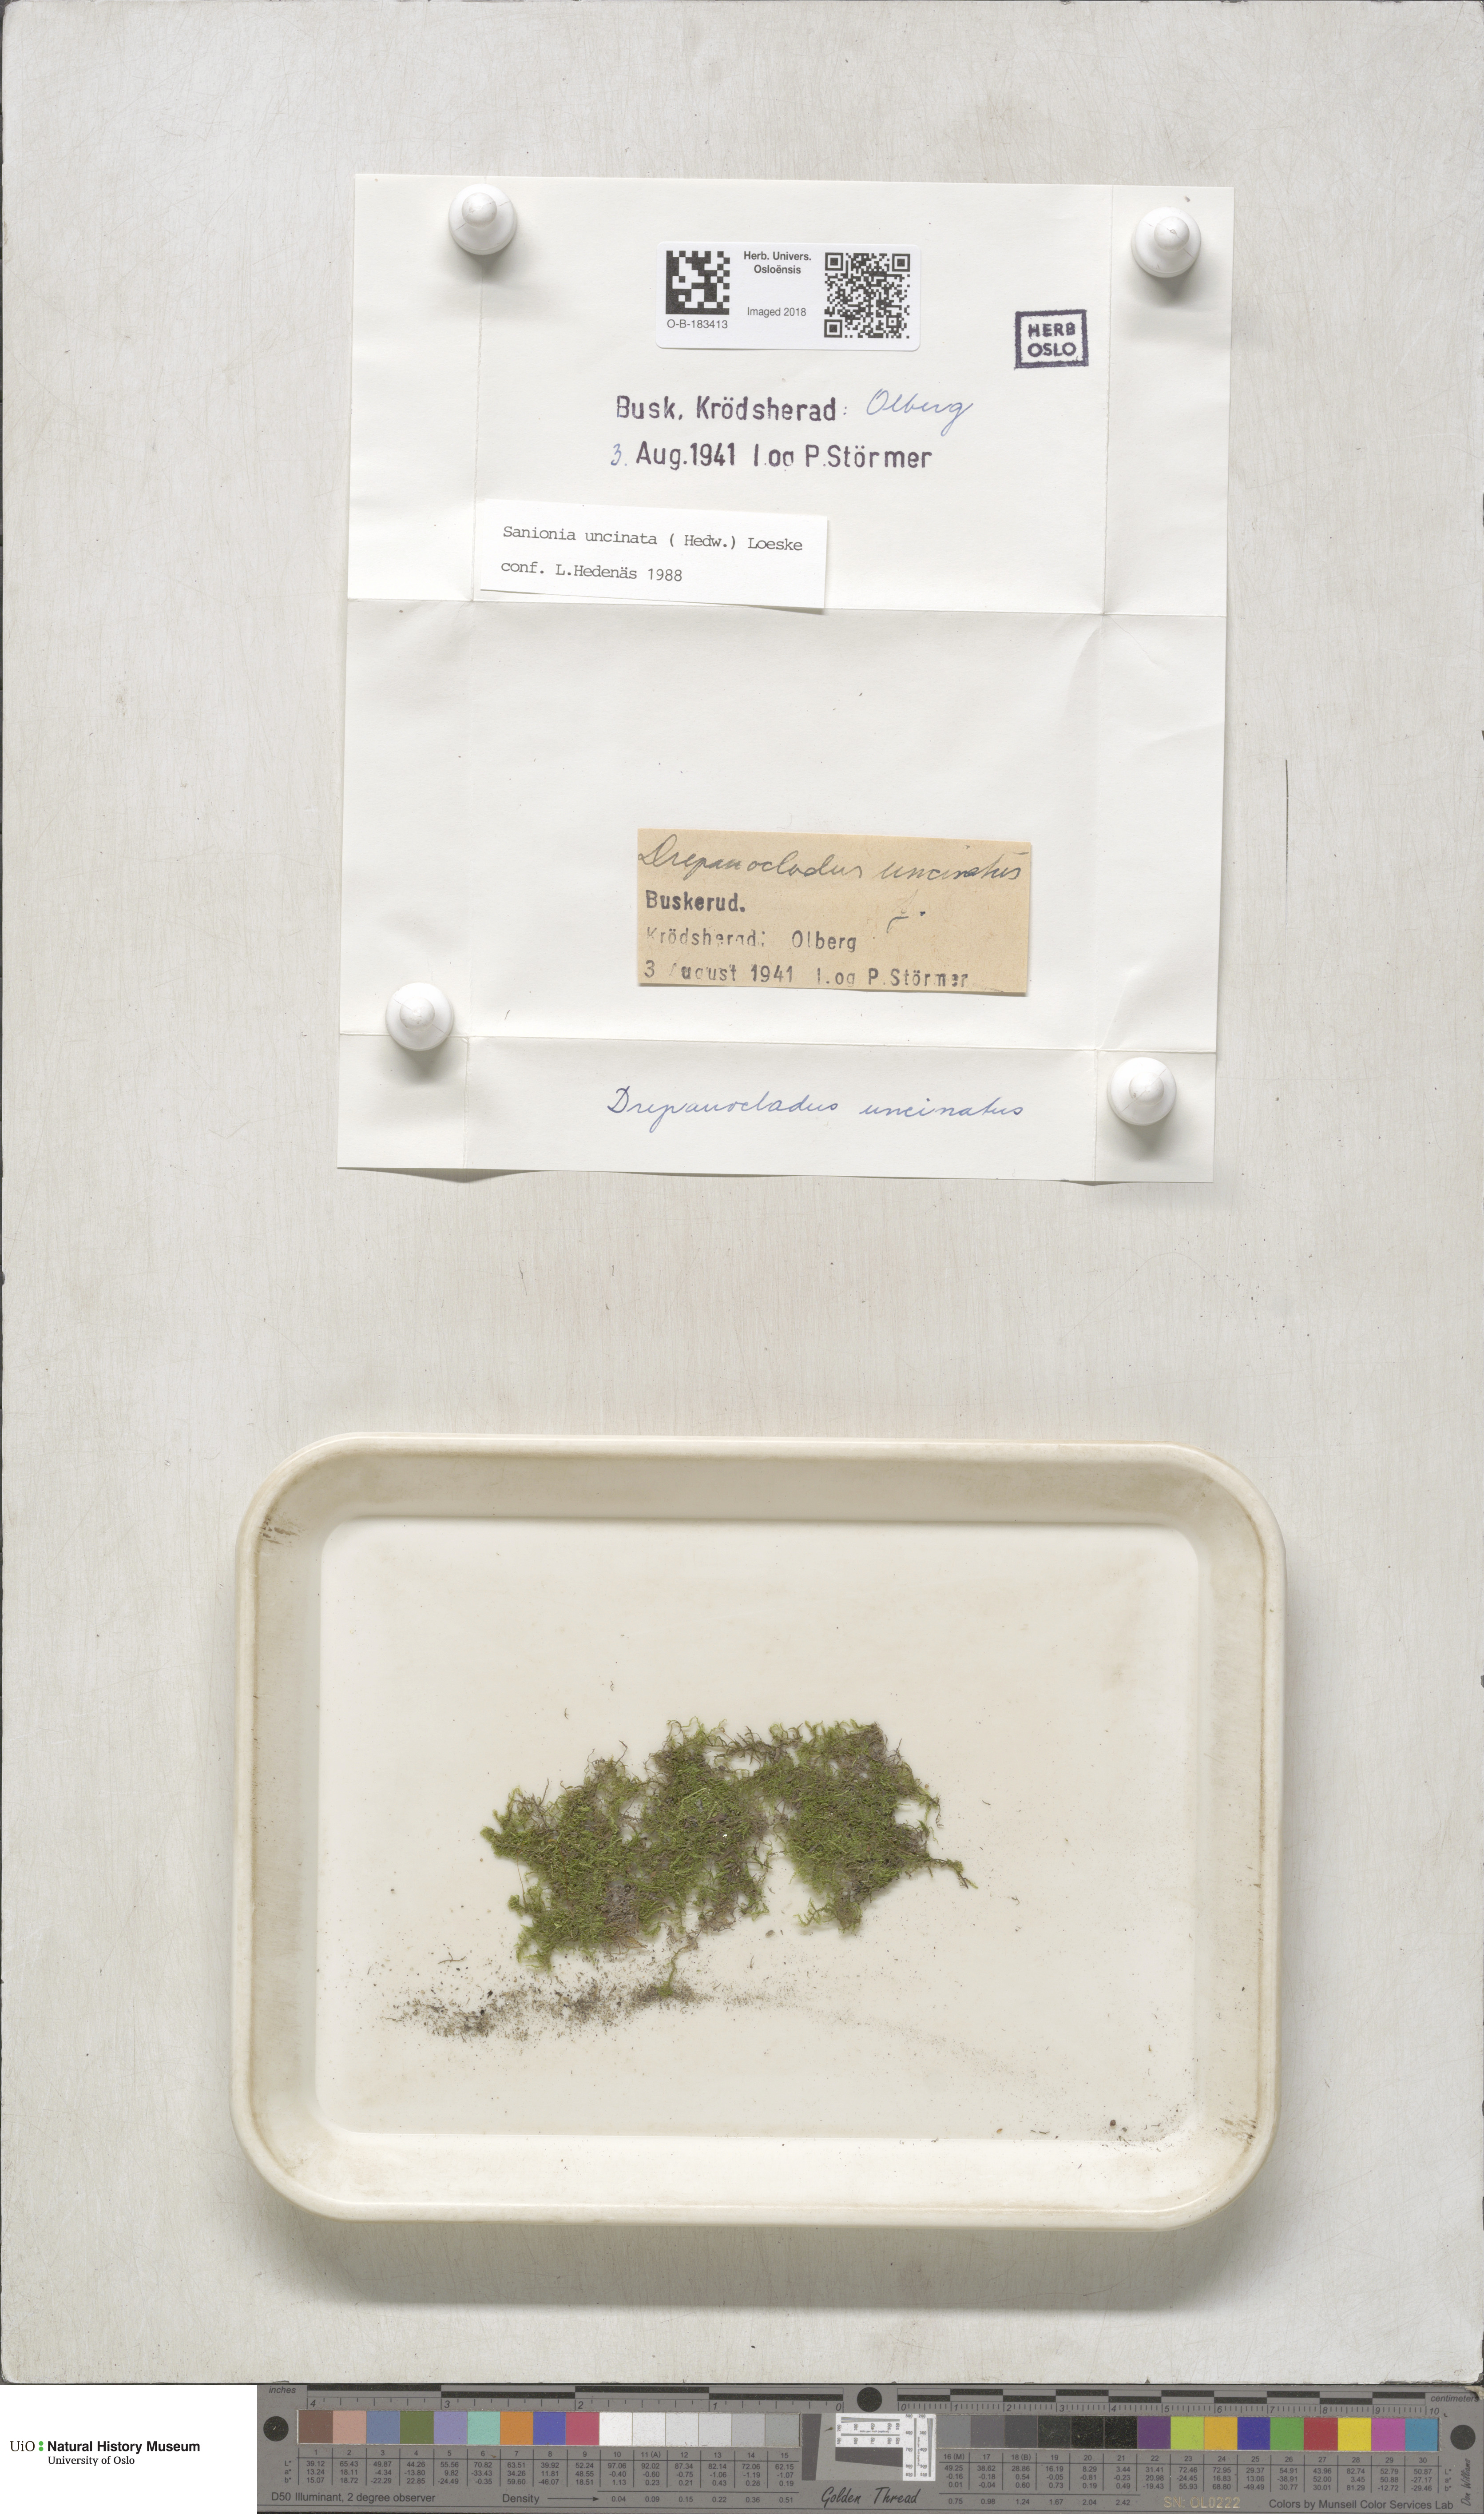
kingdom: Plantae
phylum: Bryophyta
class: Bryopsida
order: Hypnales
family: Scorpidiaceae
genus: Sanionia
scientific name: Sanionia uncinata
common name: Sickle moss
